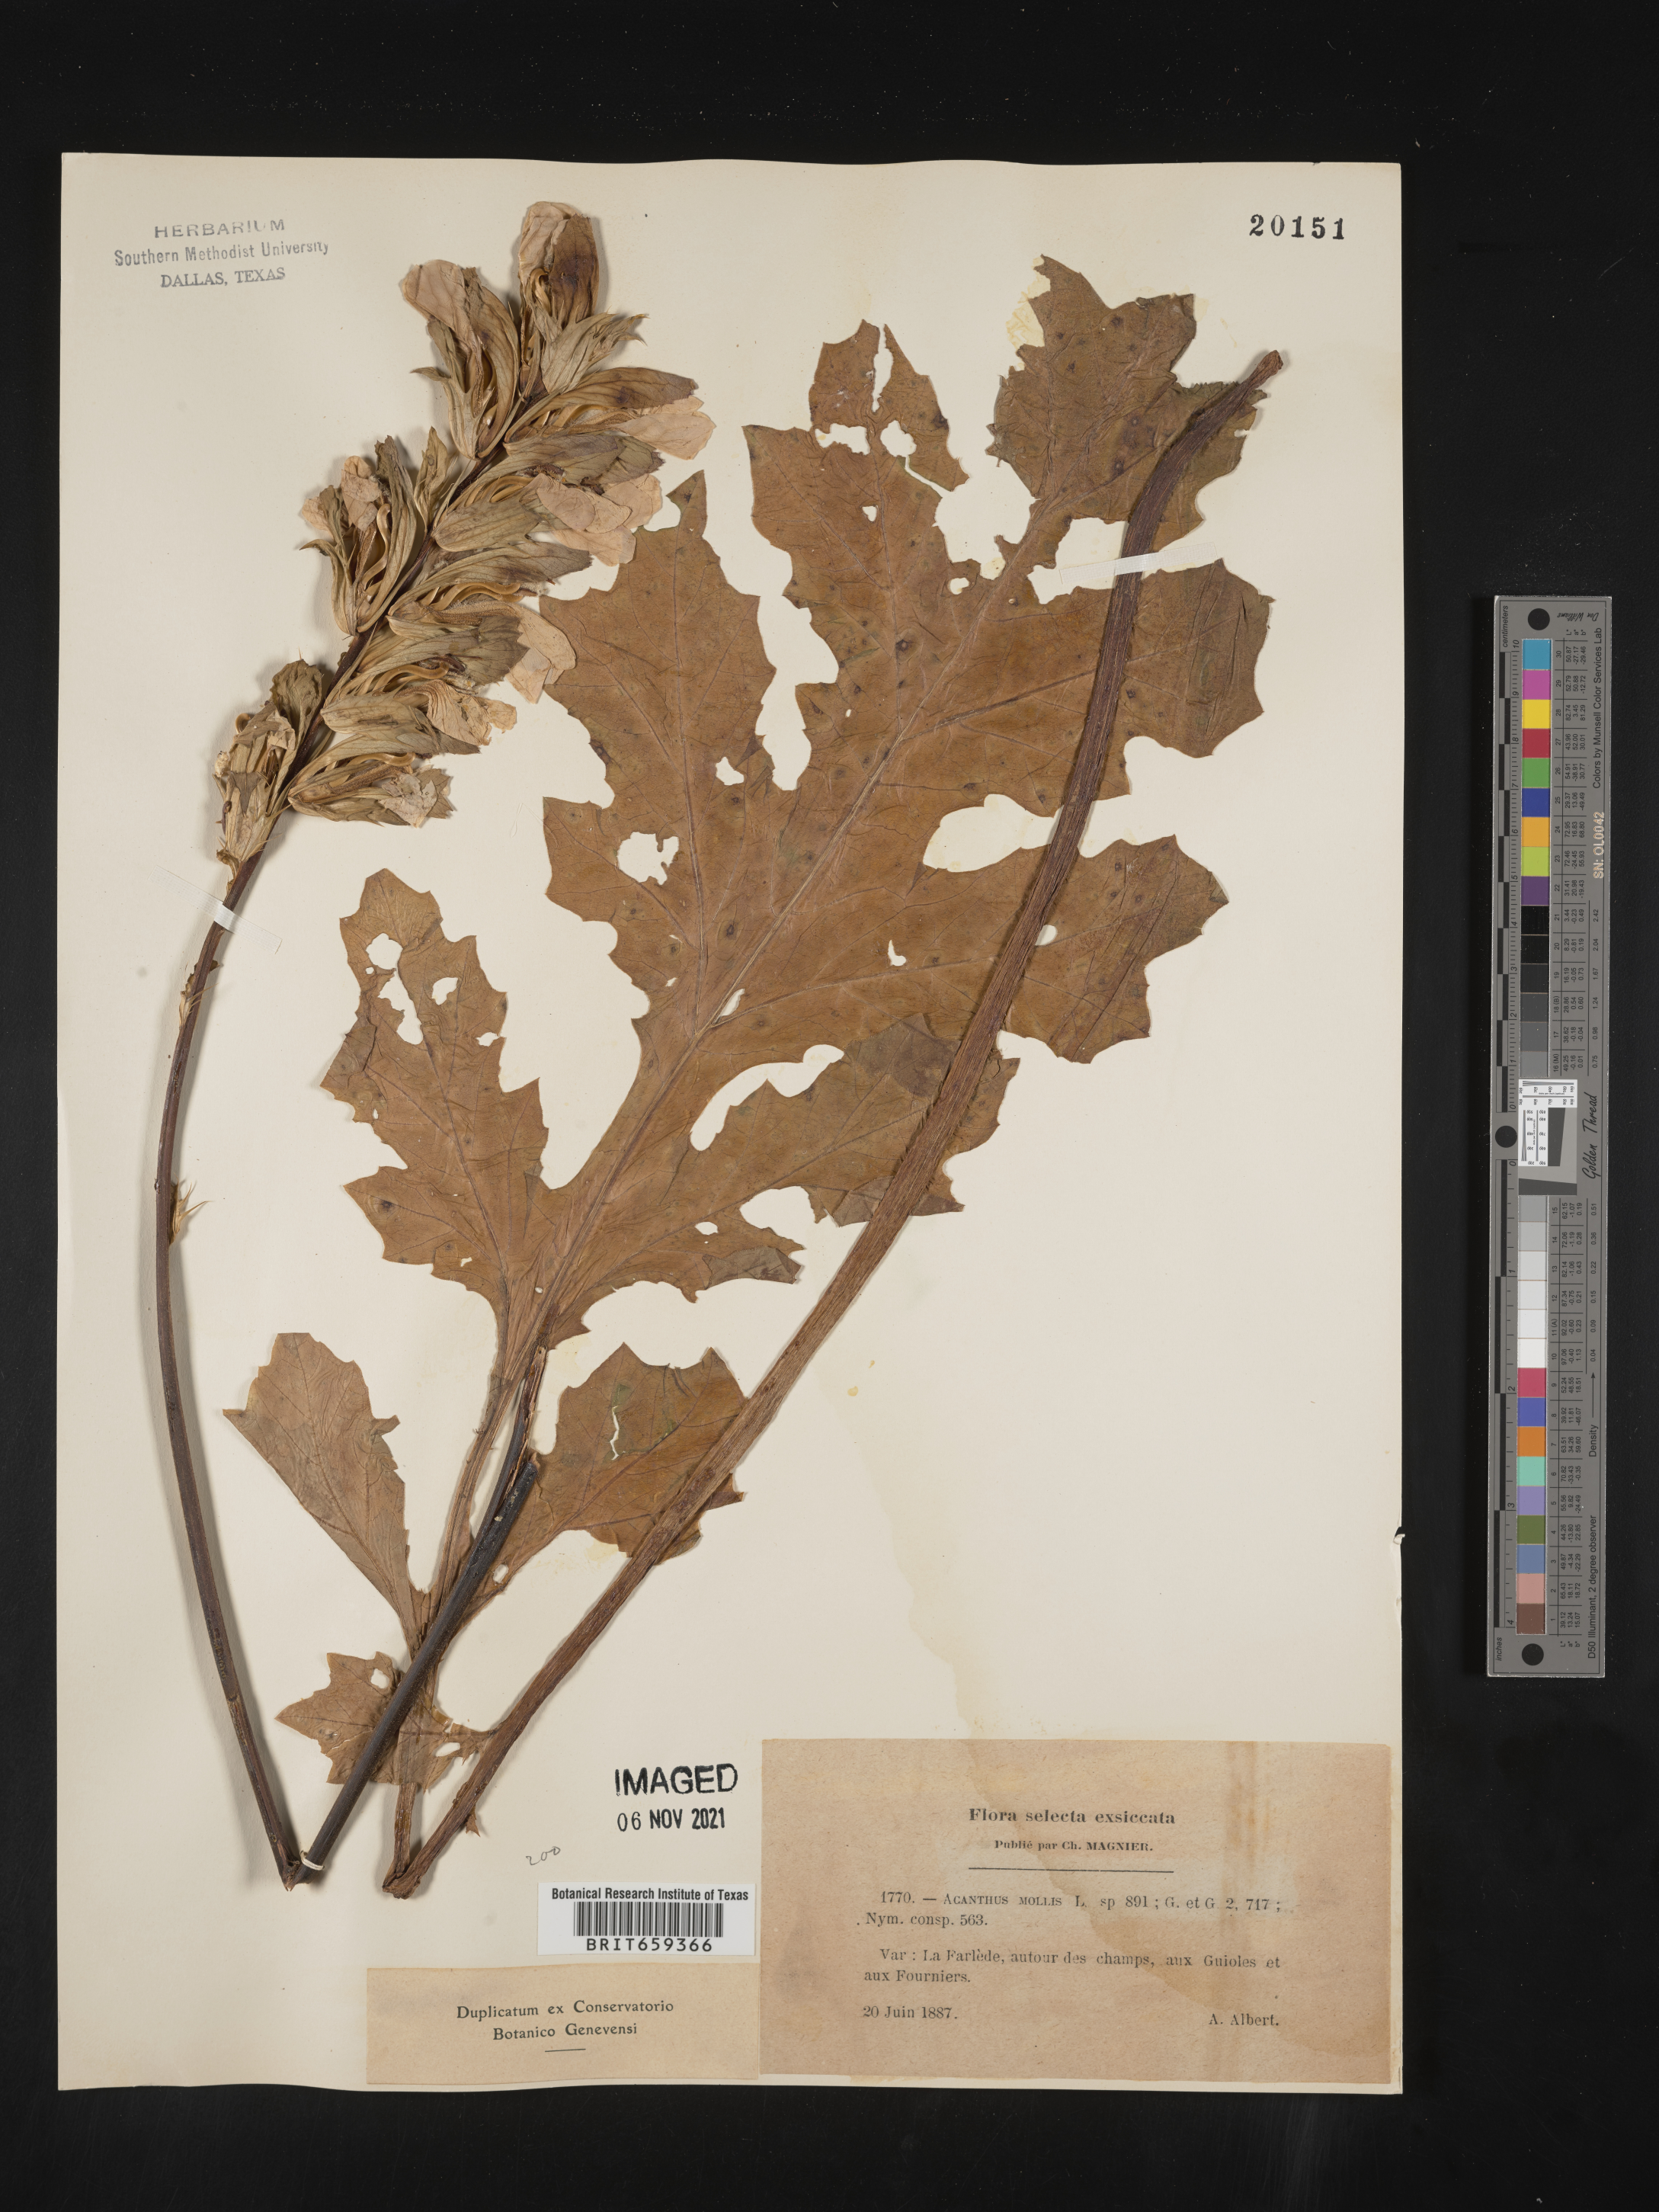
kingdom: Plantae
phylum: Tracheophyta
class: Magnoliopsida
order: Lamiales
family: Acanthaceae
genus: Acanthus
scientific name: Acanthus
